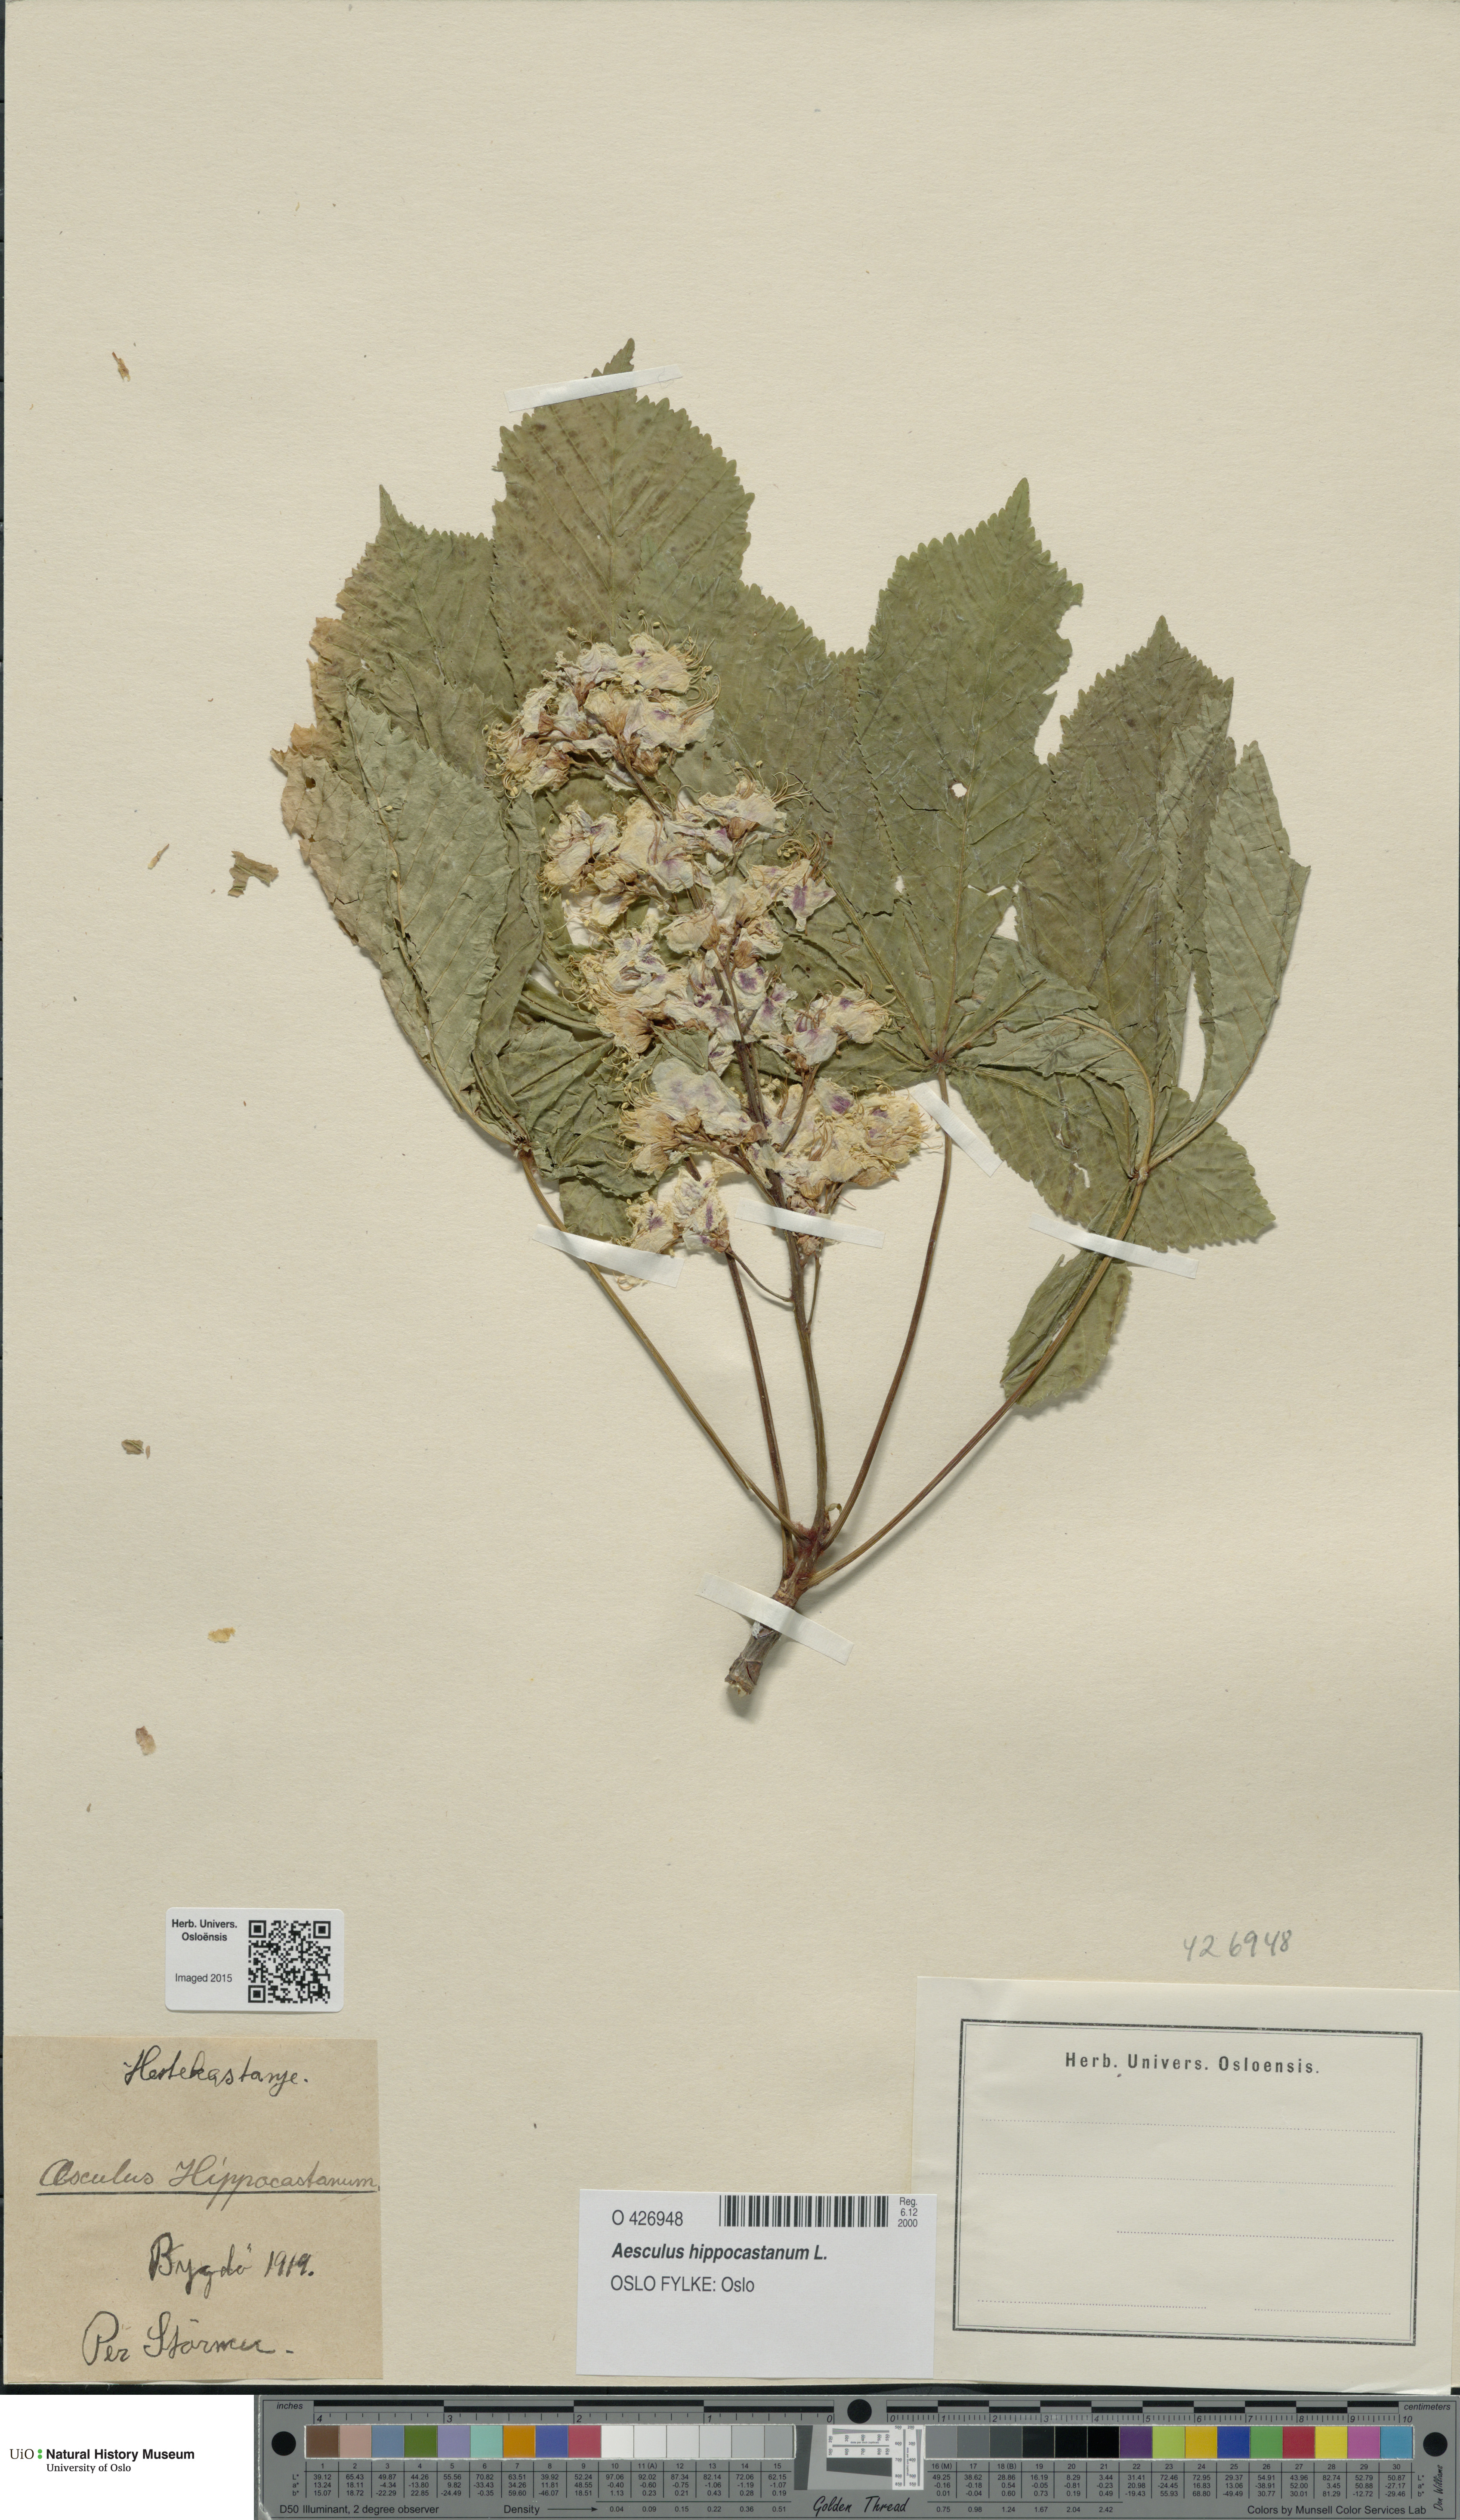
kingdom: Plantae
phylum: Tracheophyta
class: Magnoliopsida
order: Sapindales
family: Sapindaceae
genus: Aesculus
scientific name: Aesculus hippocastanum
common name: Horse-chestnut
